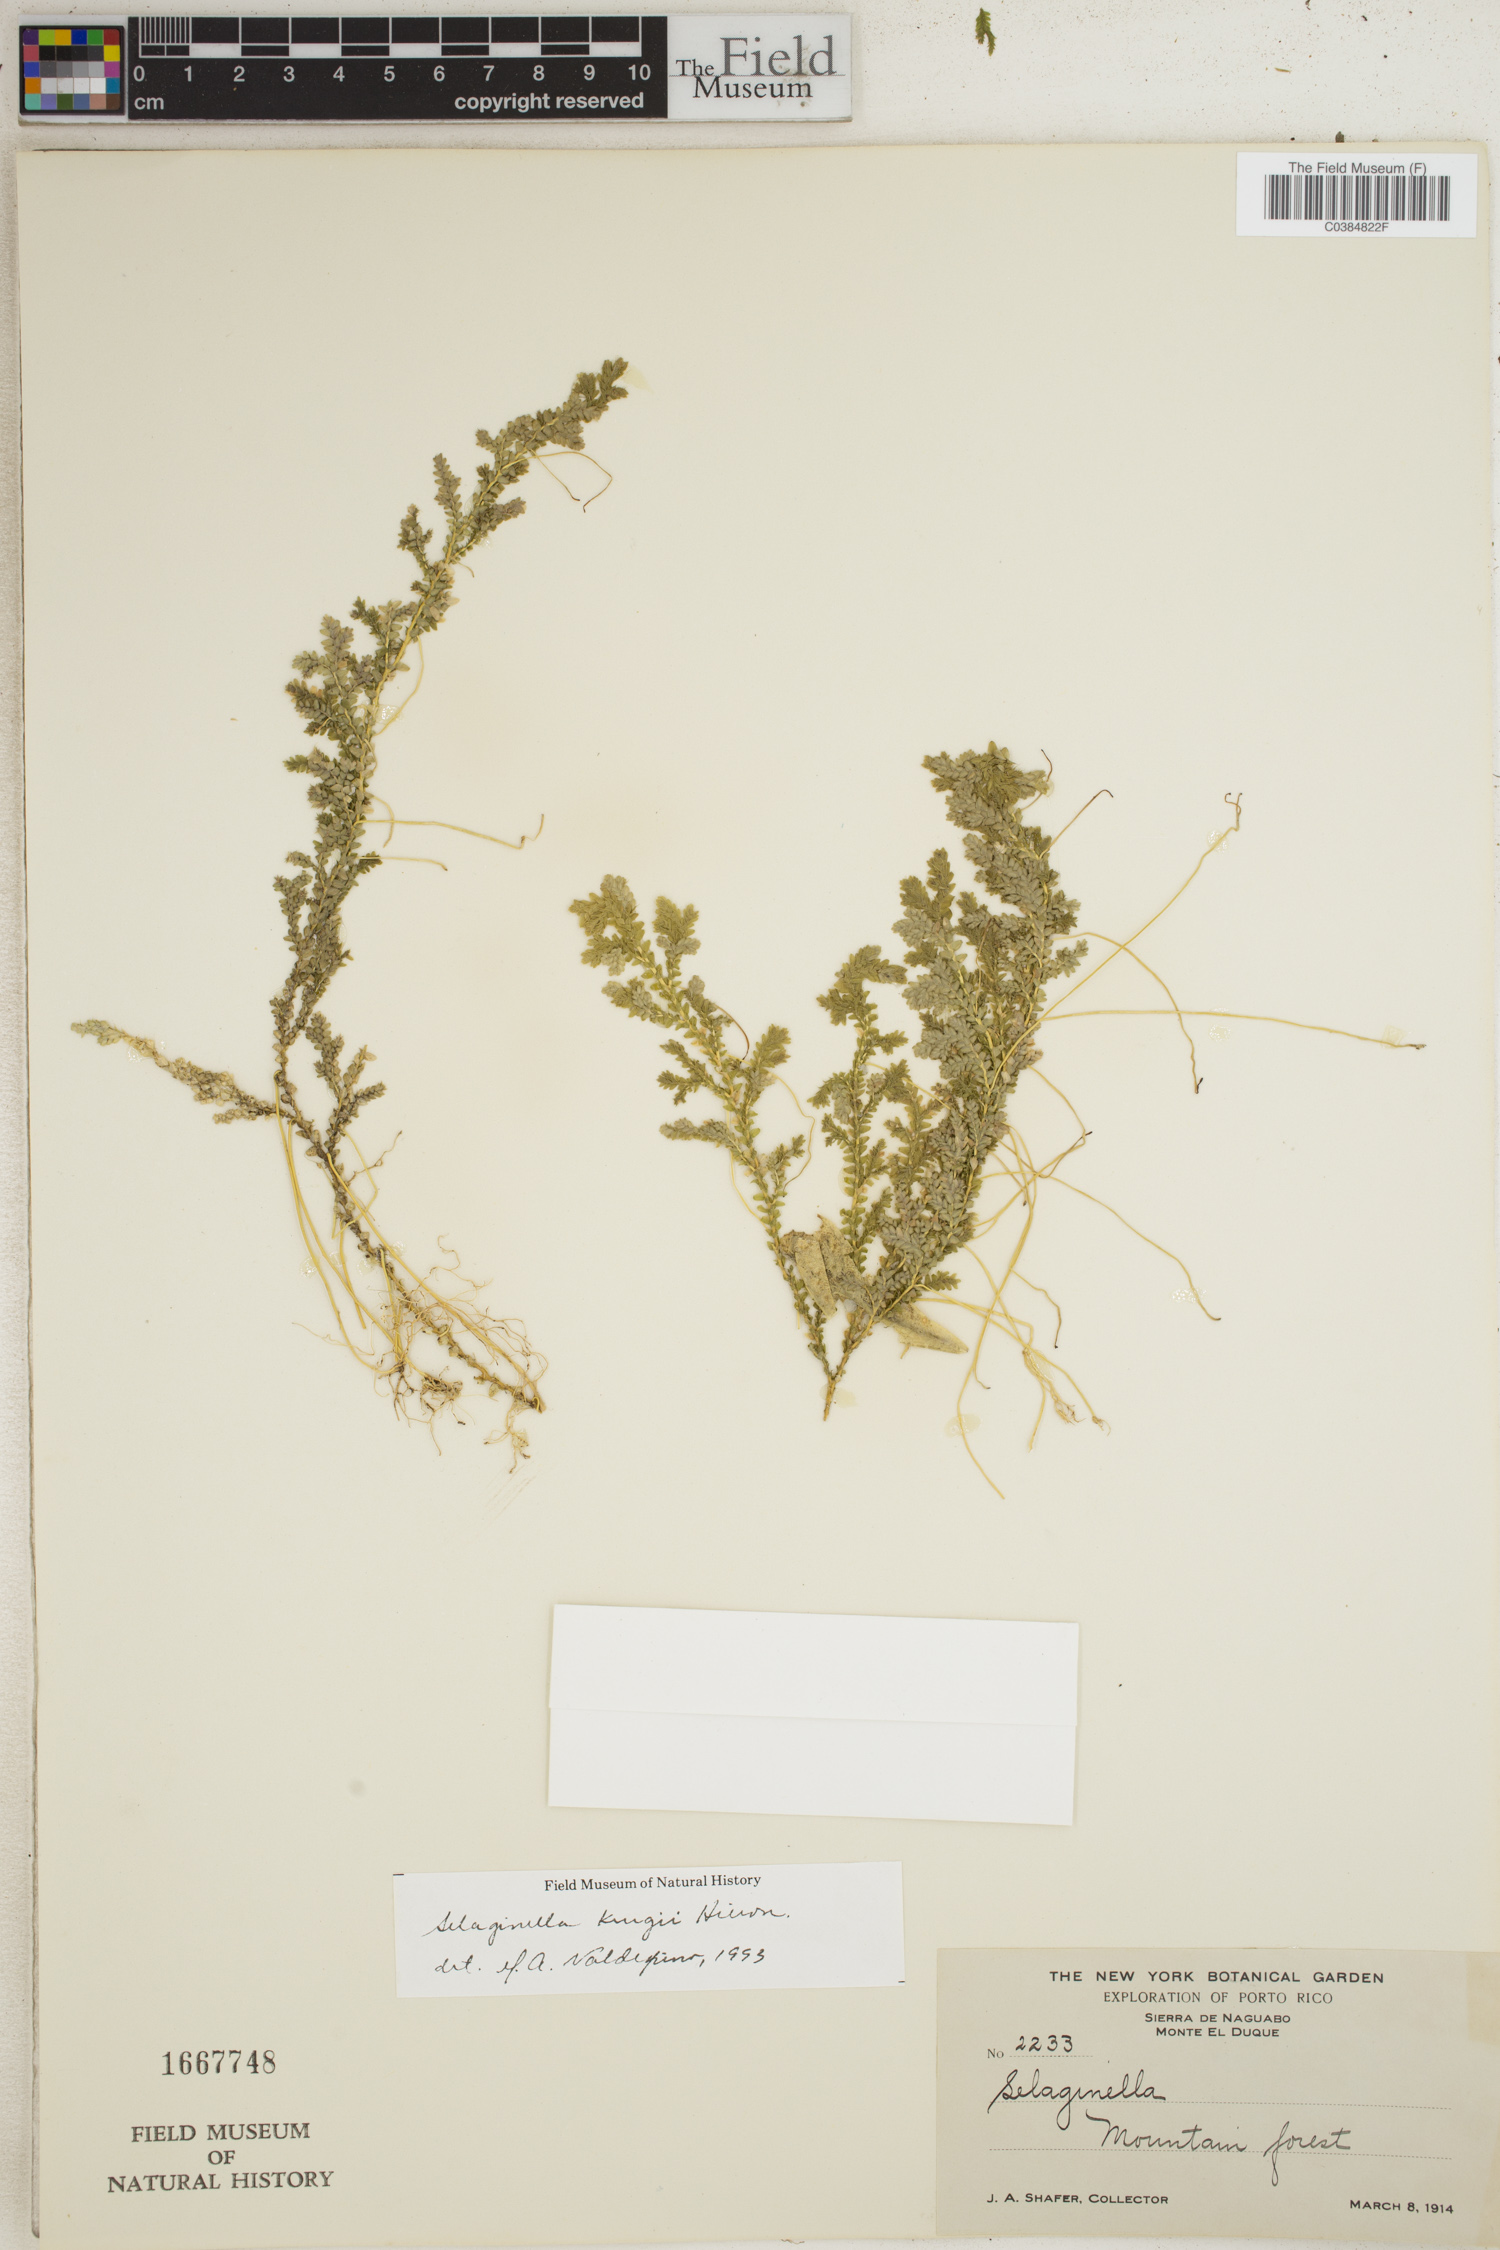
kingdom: Plantae
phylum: Tracheophyta
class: Lycopodiopsida
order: Selaginellales
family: Selaginellaceae
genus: Selaginella
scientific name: Selaginella krugii
